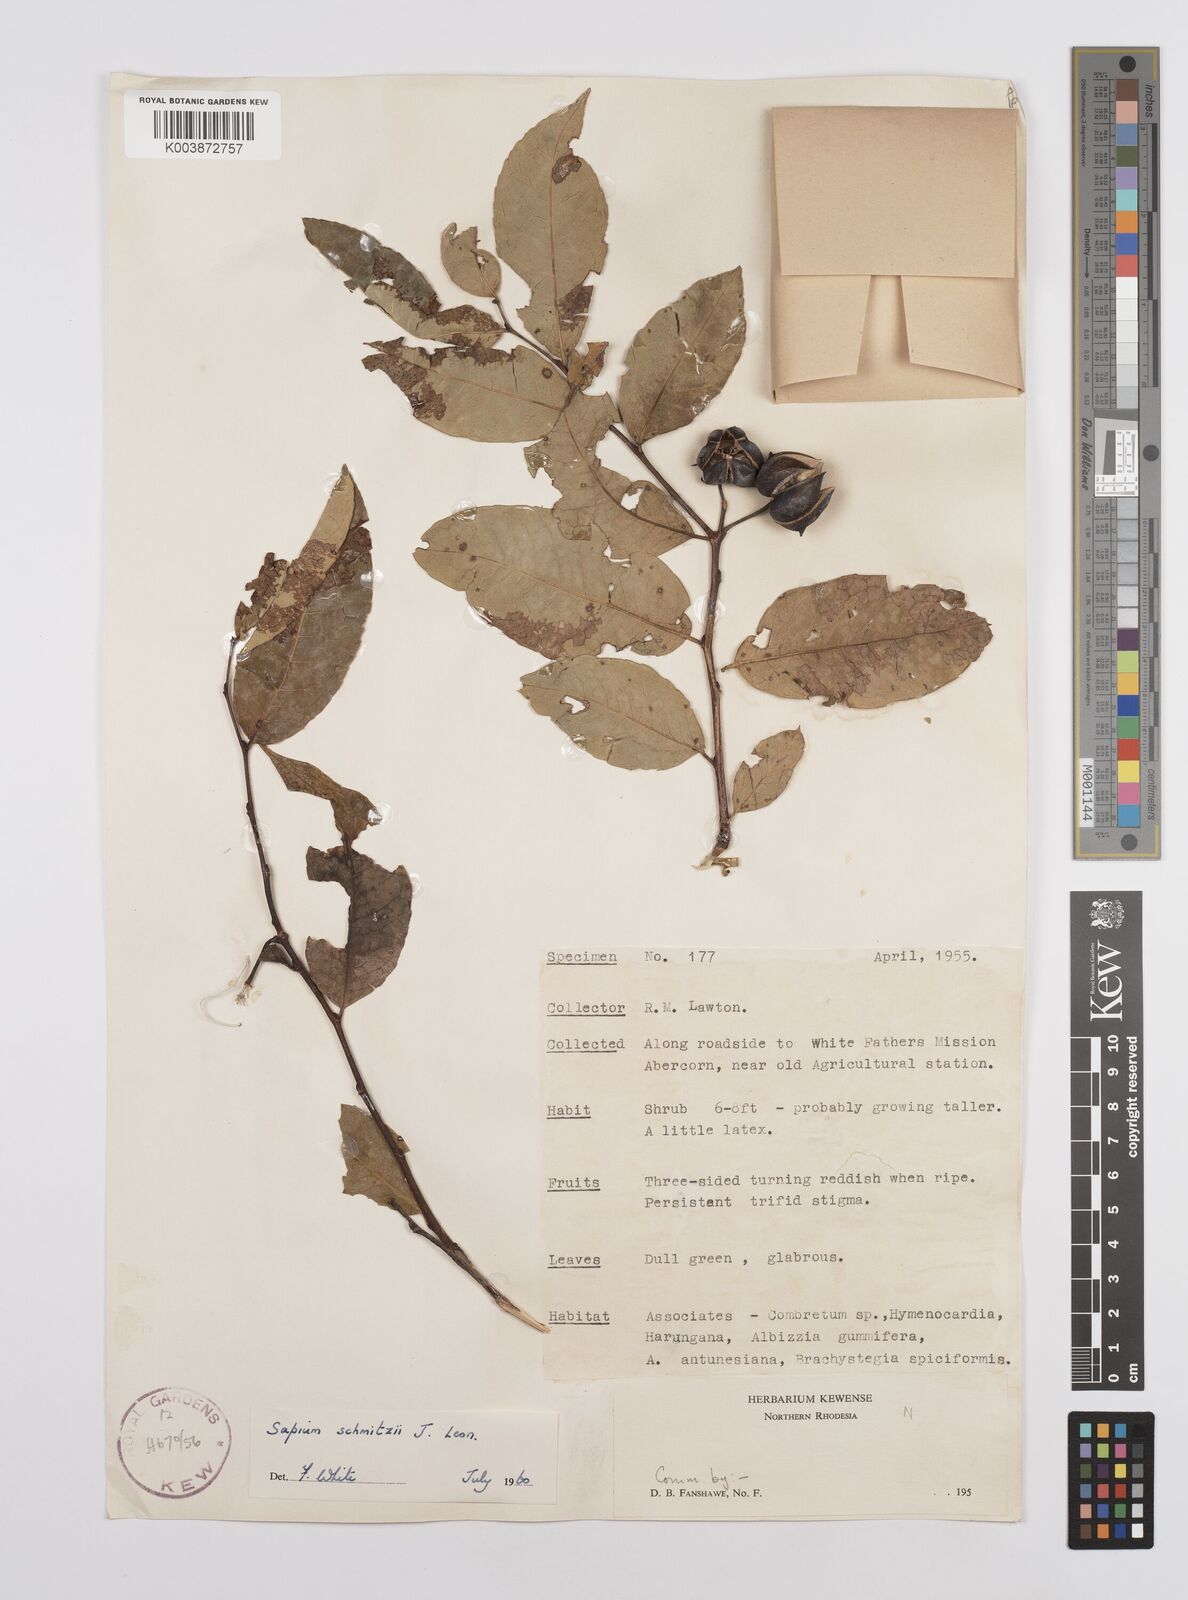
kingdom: Plantae
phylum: Tracheophyta
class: Magnoliopsida
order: Malpighiales
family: Euphorbiaceae
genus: Sclerocroton
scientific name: Sclerocroton schmitzii
